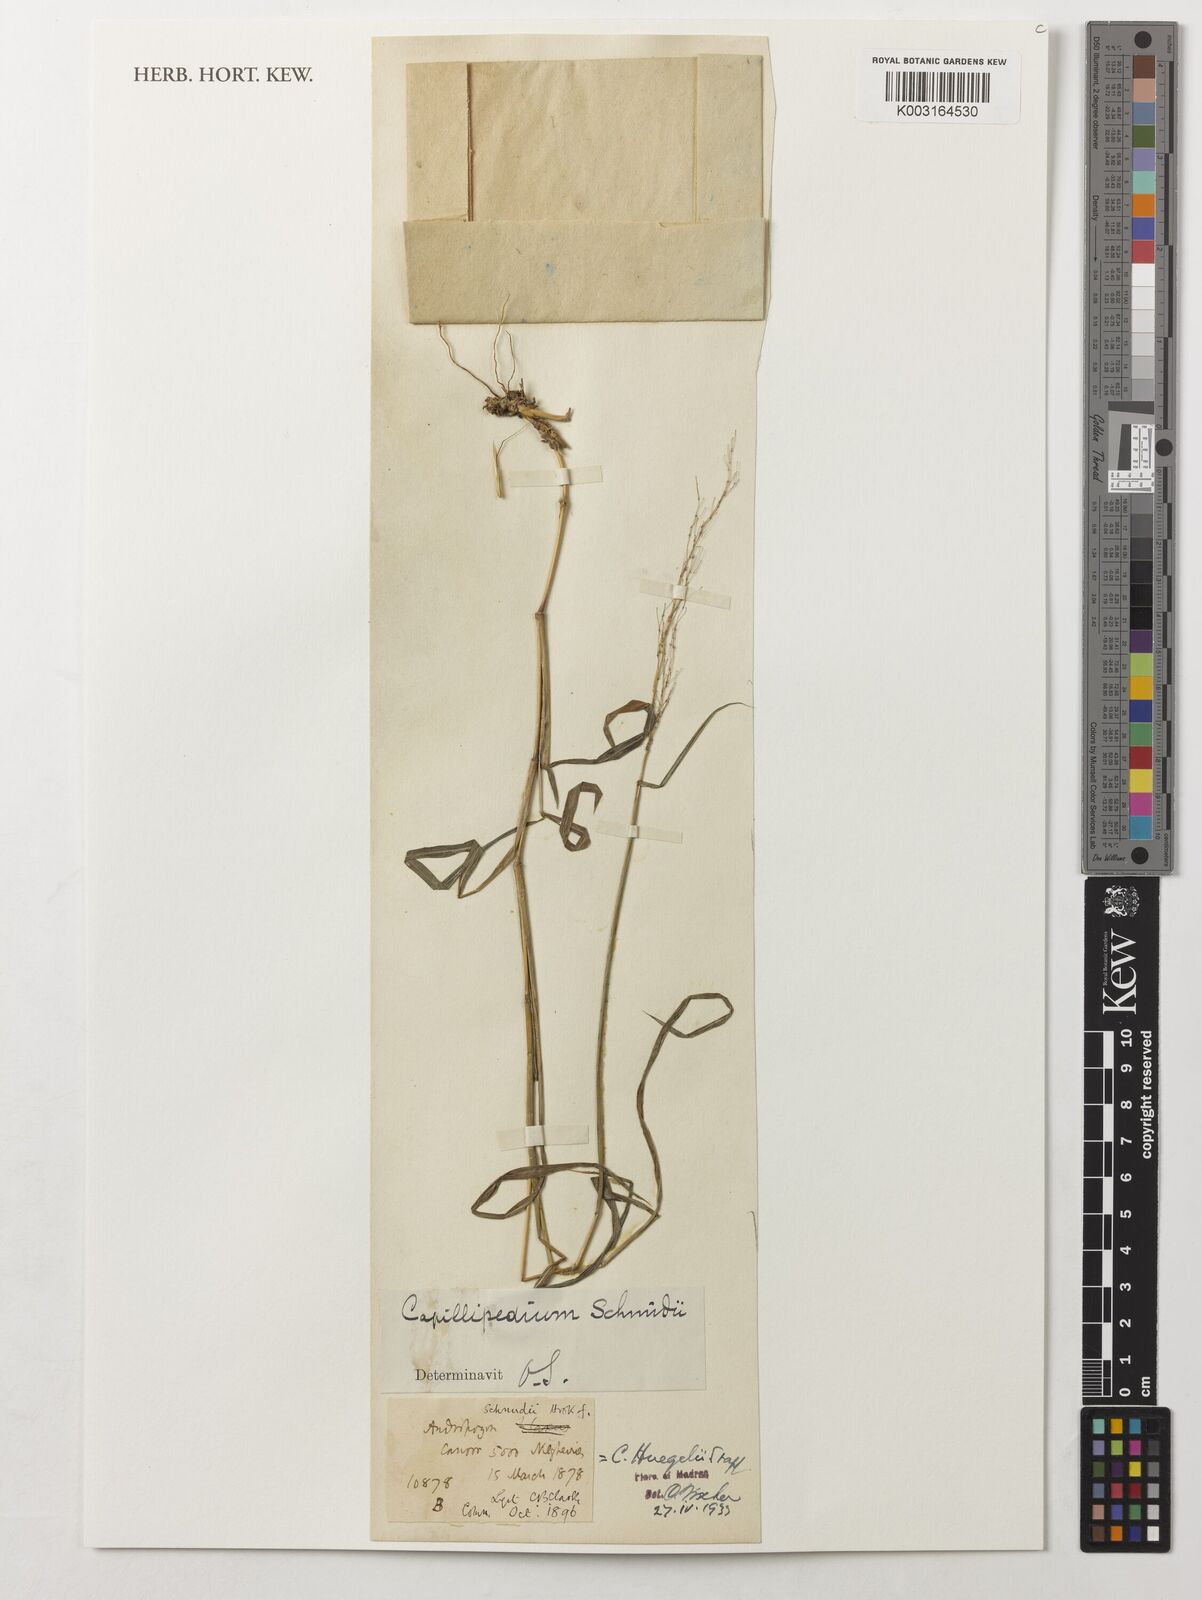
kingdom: Plantae
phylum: Tracheophyta
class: Liliopsida
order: Poales
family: Poaceae
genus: Capillipedium
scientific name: Capillipedium huegelii
